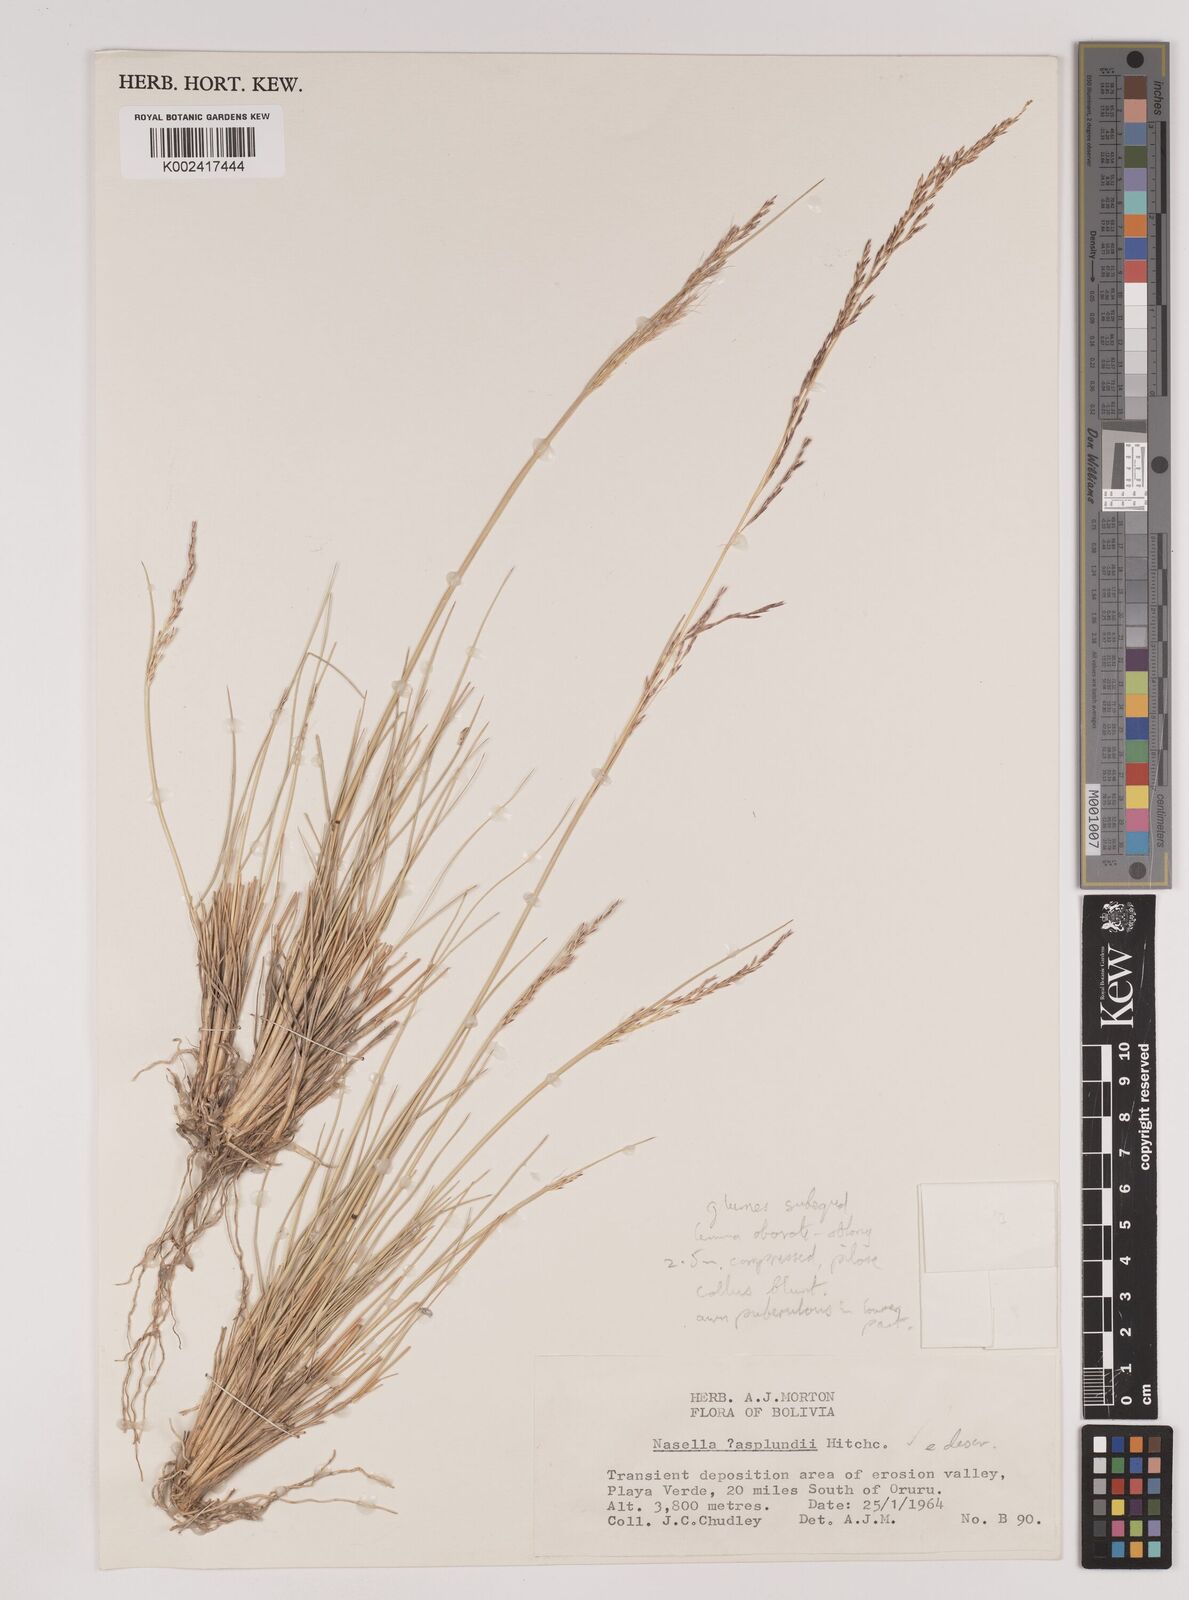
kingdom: Plantae
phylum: Tracheophyta
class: Liliopsida
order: Poales
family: Poaceae
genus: Nassella
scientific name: Nassella asplundii
